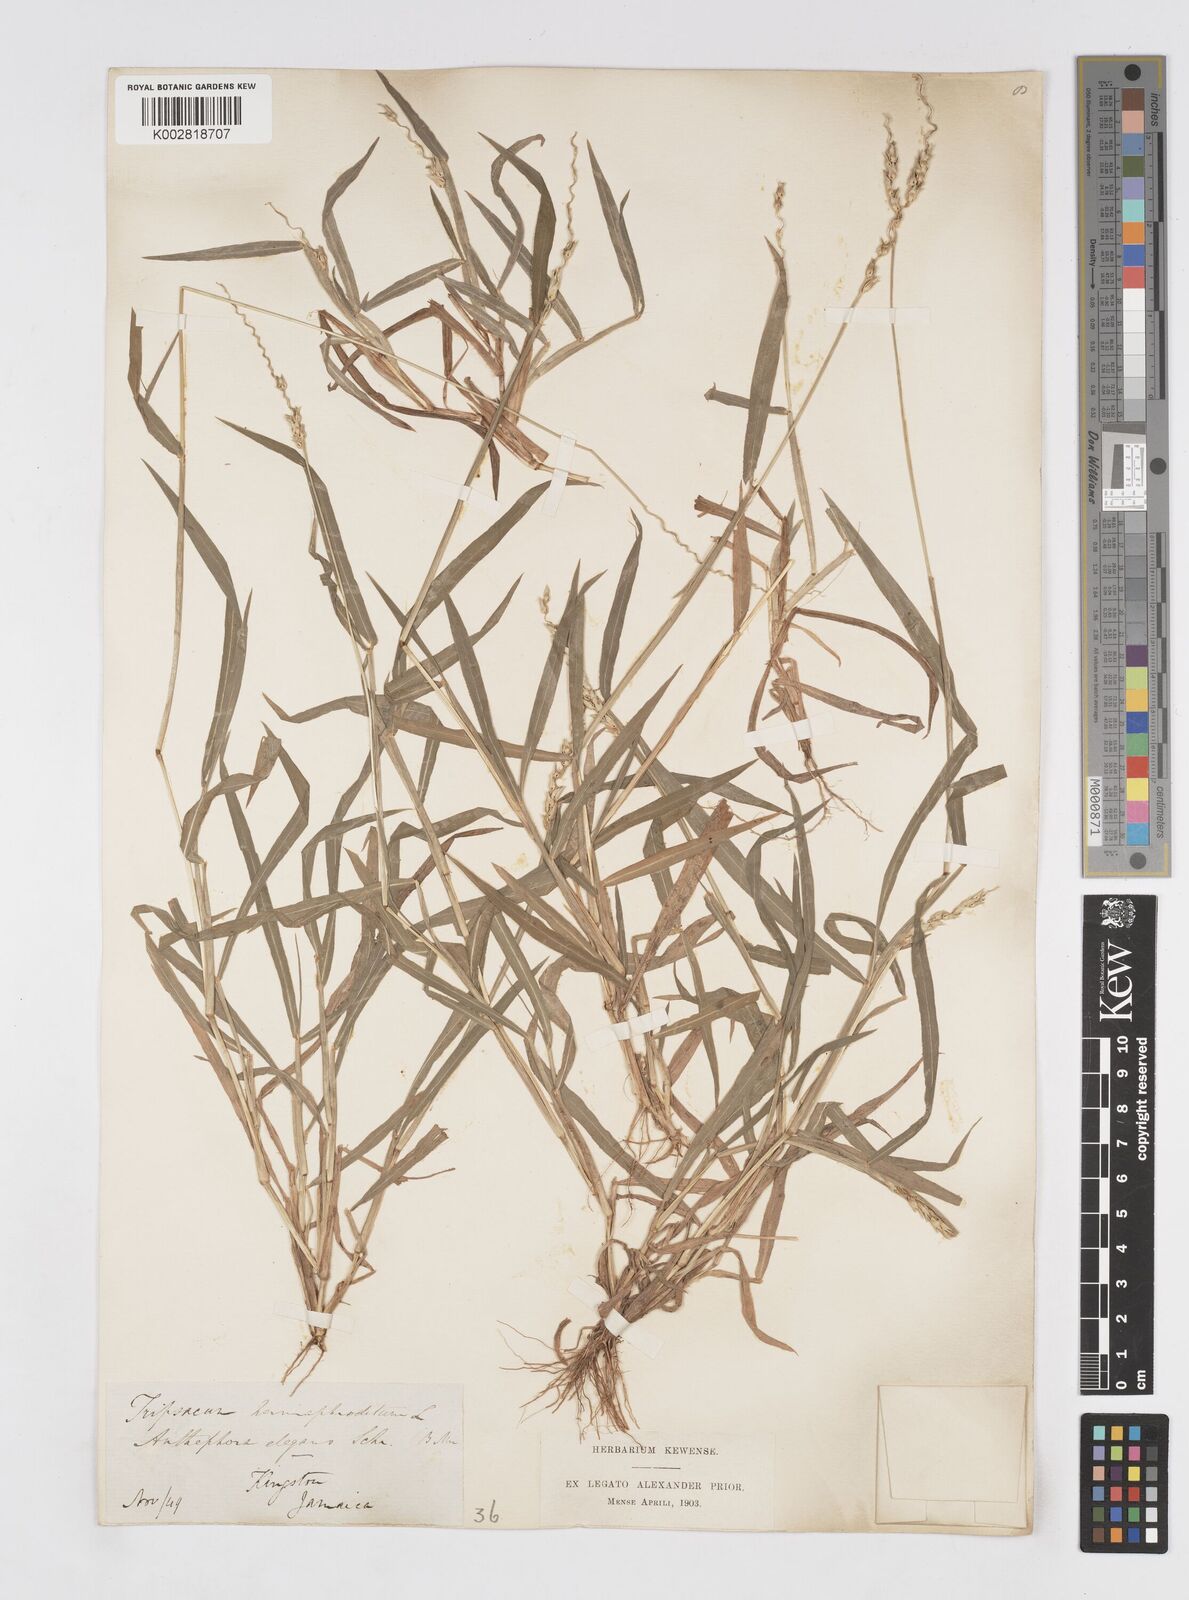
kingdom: Plantae
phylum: Tracheophyta
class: Liliopsida
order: Poales
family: Poaceae
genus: Anthephora
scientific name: Anthephora hermaphrodita
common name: Oldfield grass
